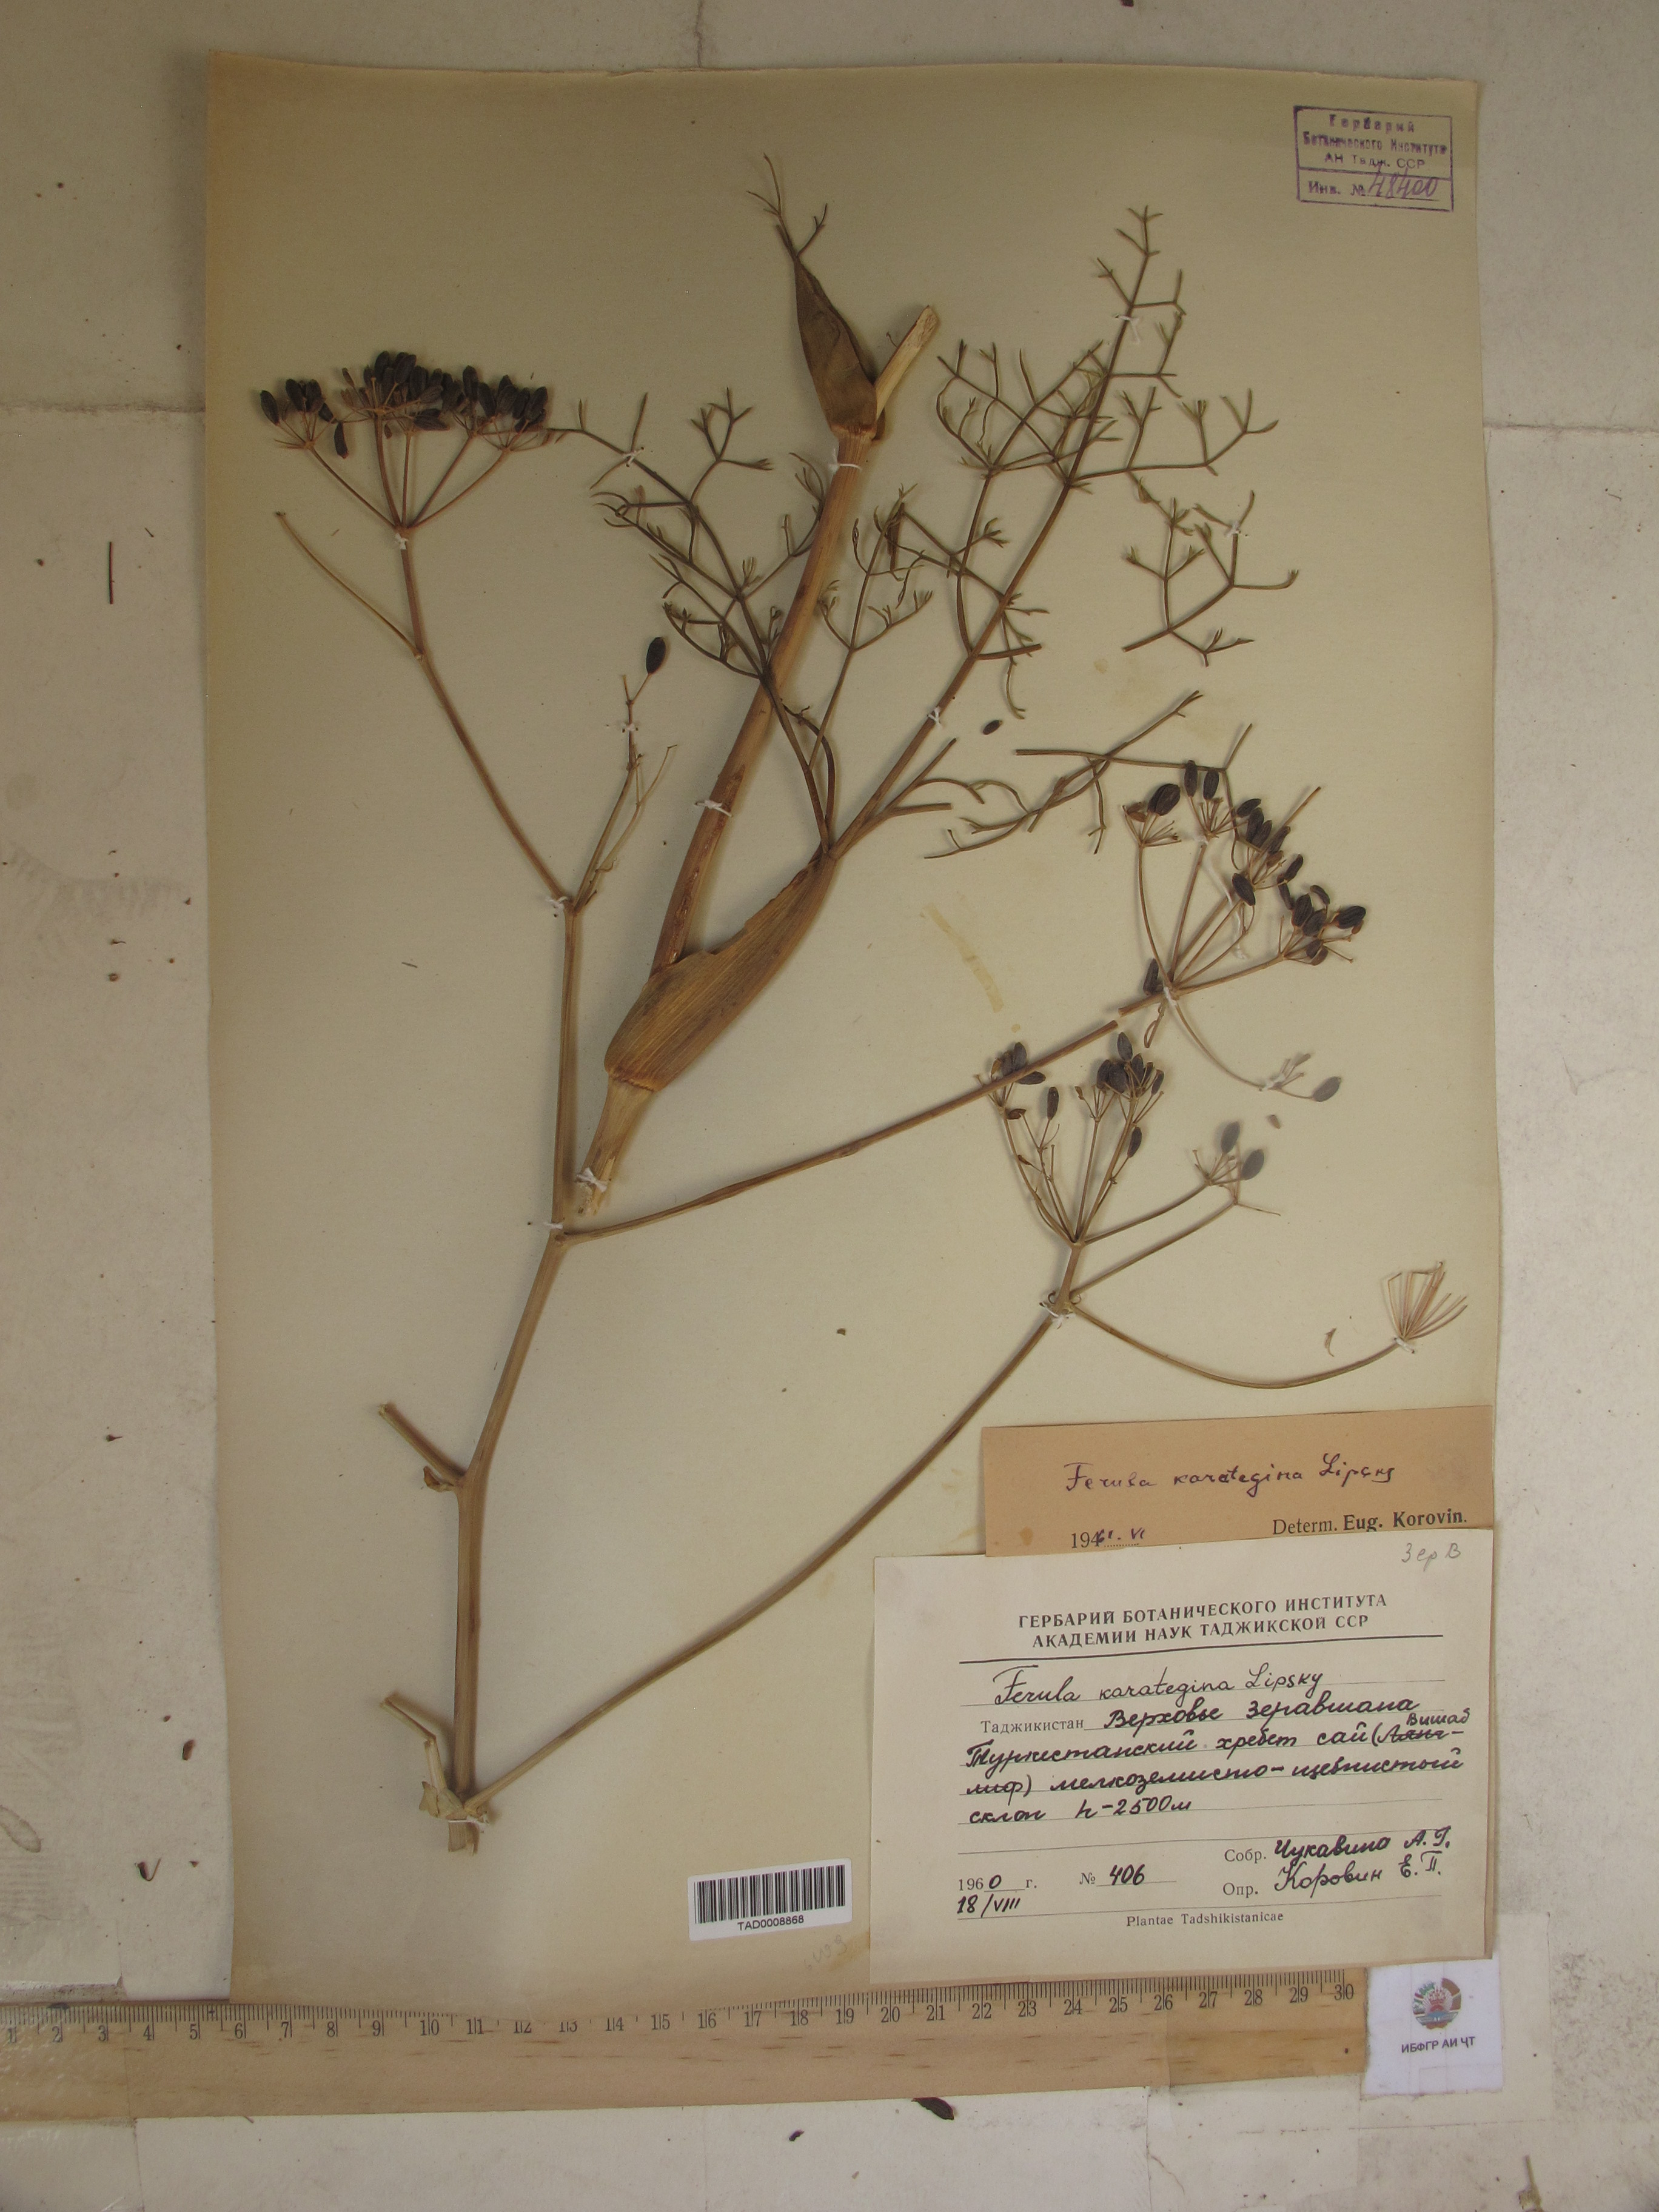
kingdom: Plantae
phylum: Tracheophyta
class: Magnoliopsida
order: Apiales
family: Apiaceae
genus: Ferula
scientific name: Ferula karategina
